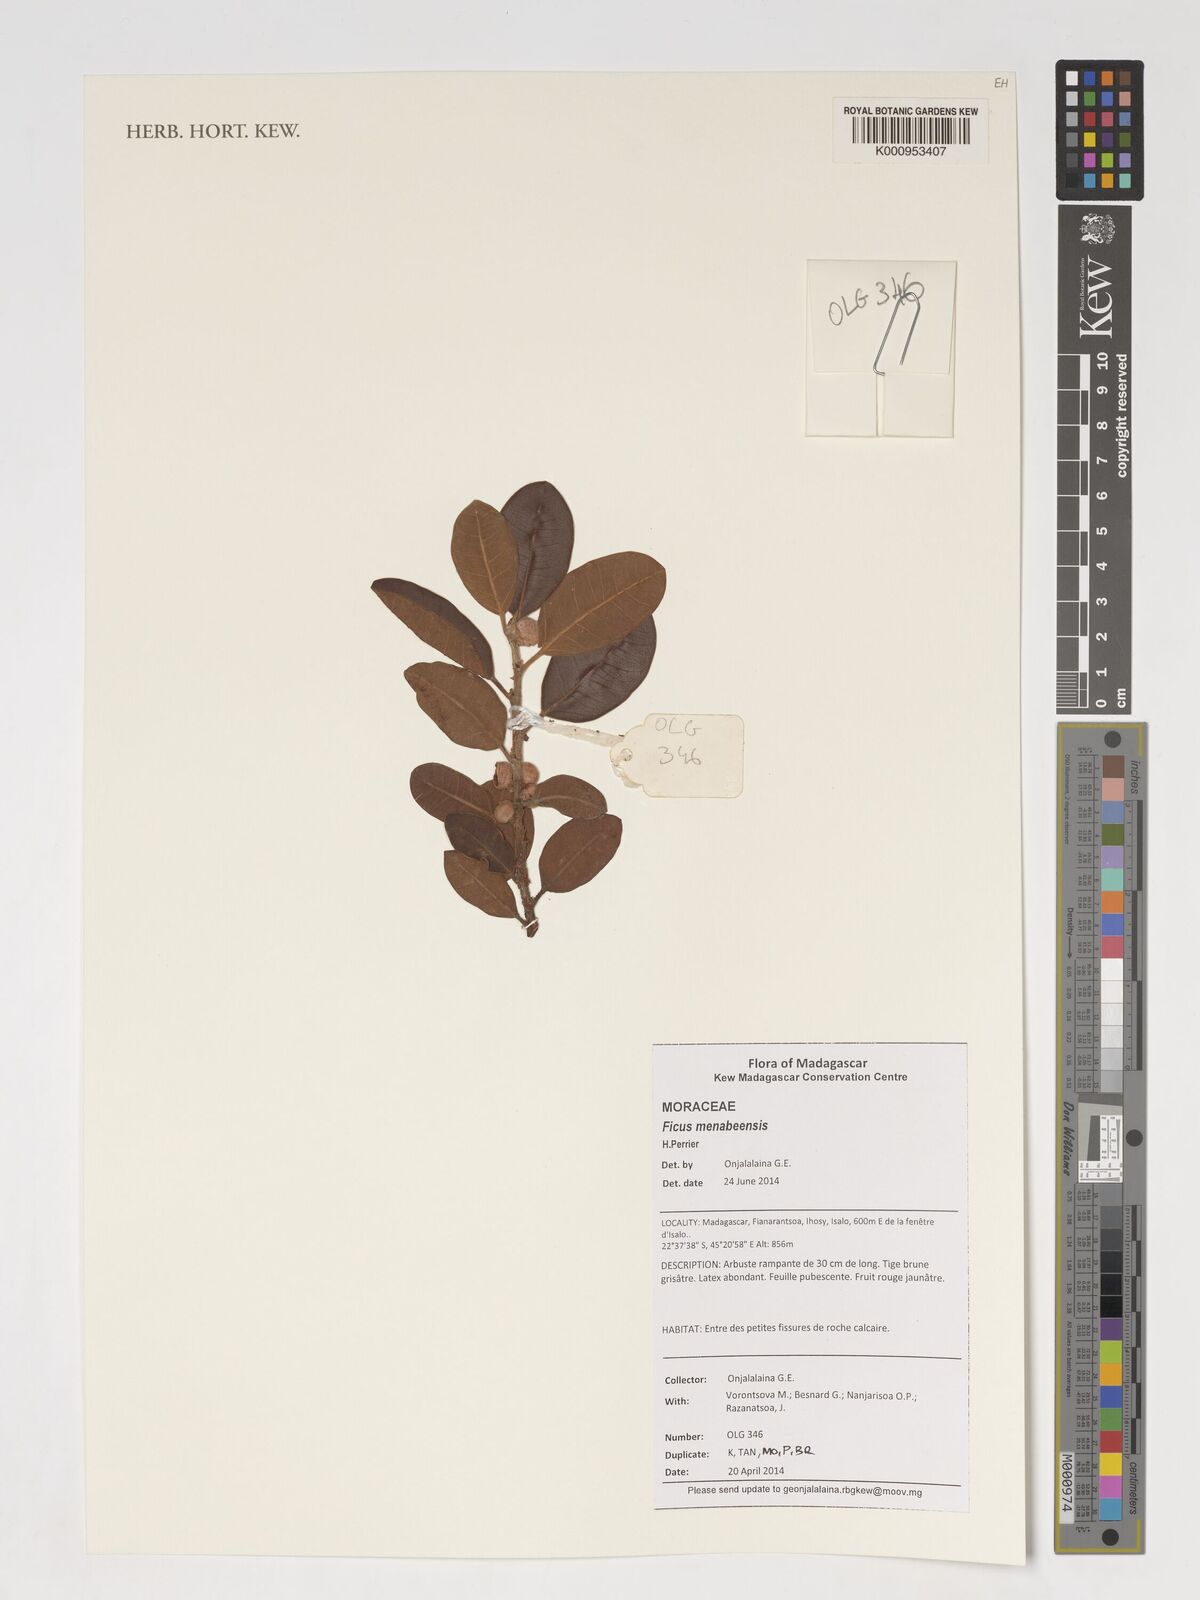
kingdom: Plantae
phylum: Tracheophyta
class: Magnoliopsida
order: Rosales
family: Moraceae
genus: Ficus
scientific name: Ficus menabeensis
